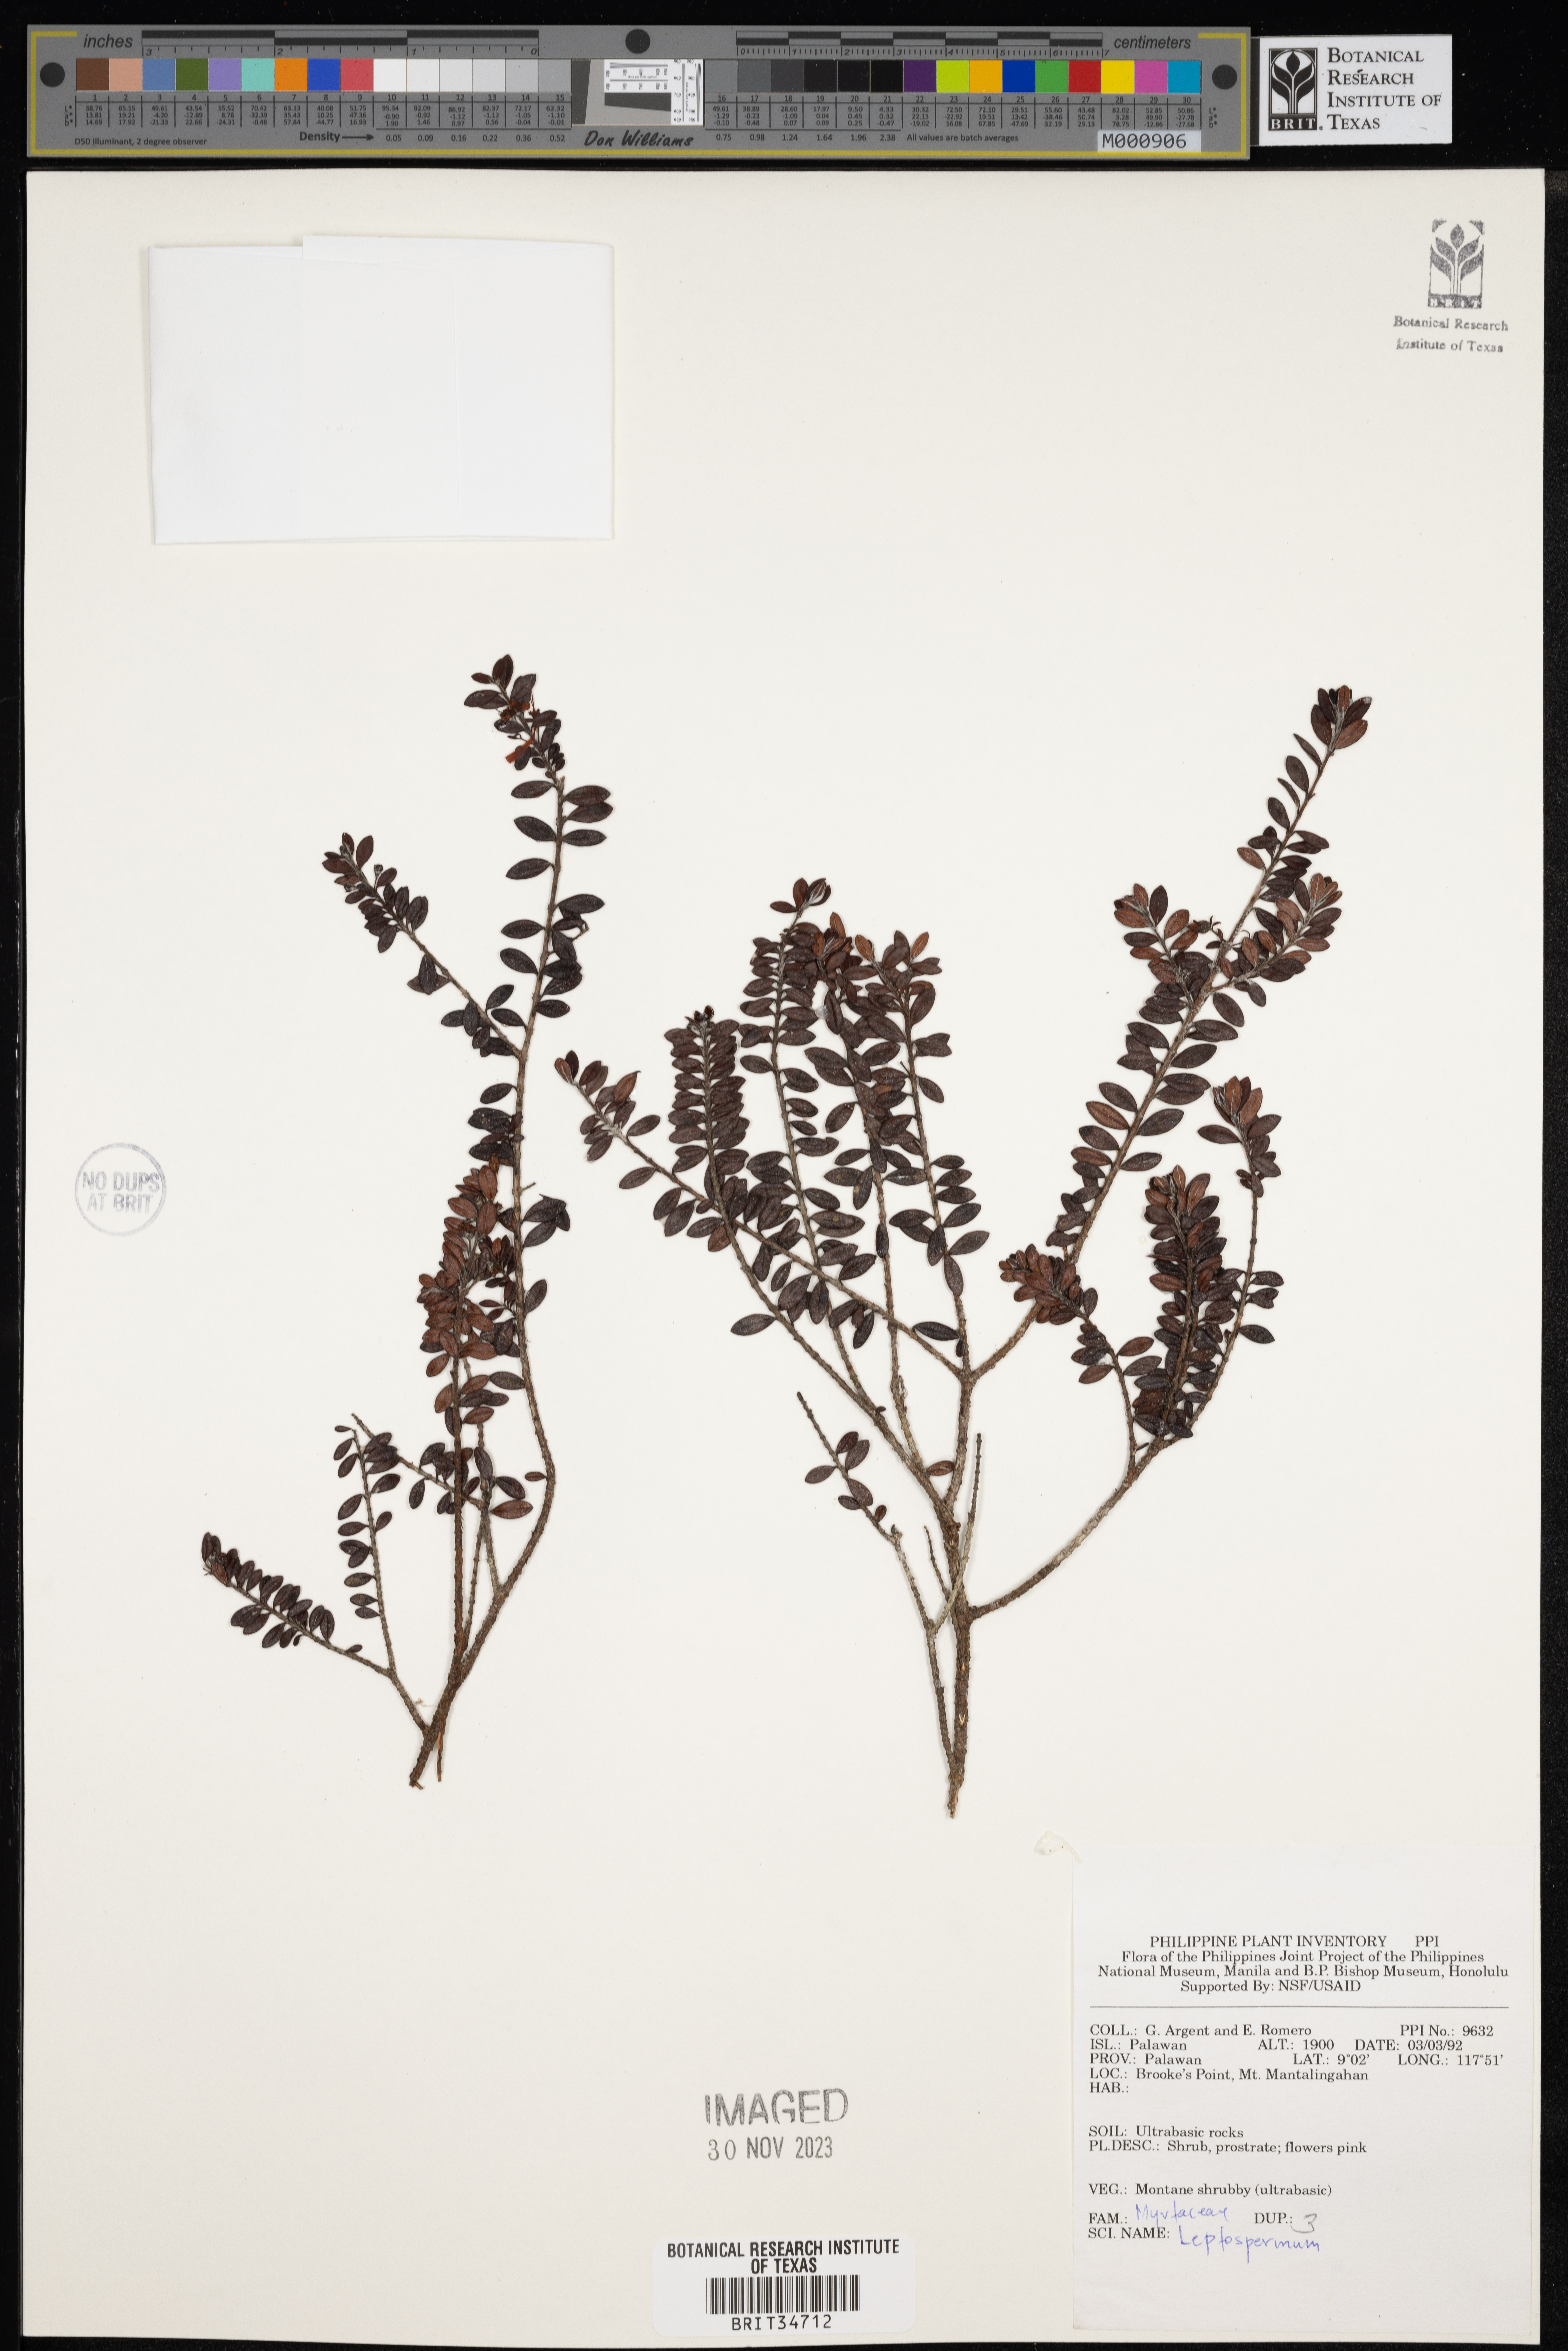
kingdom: Plantae
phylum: Tracheophyta
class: Magnoliopsida
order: Myrtales
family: Myrtaceae
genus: Leptospermum
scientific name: Leptospermum
